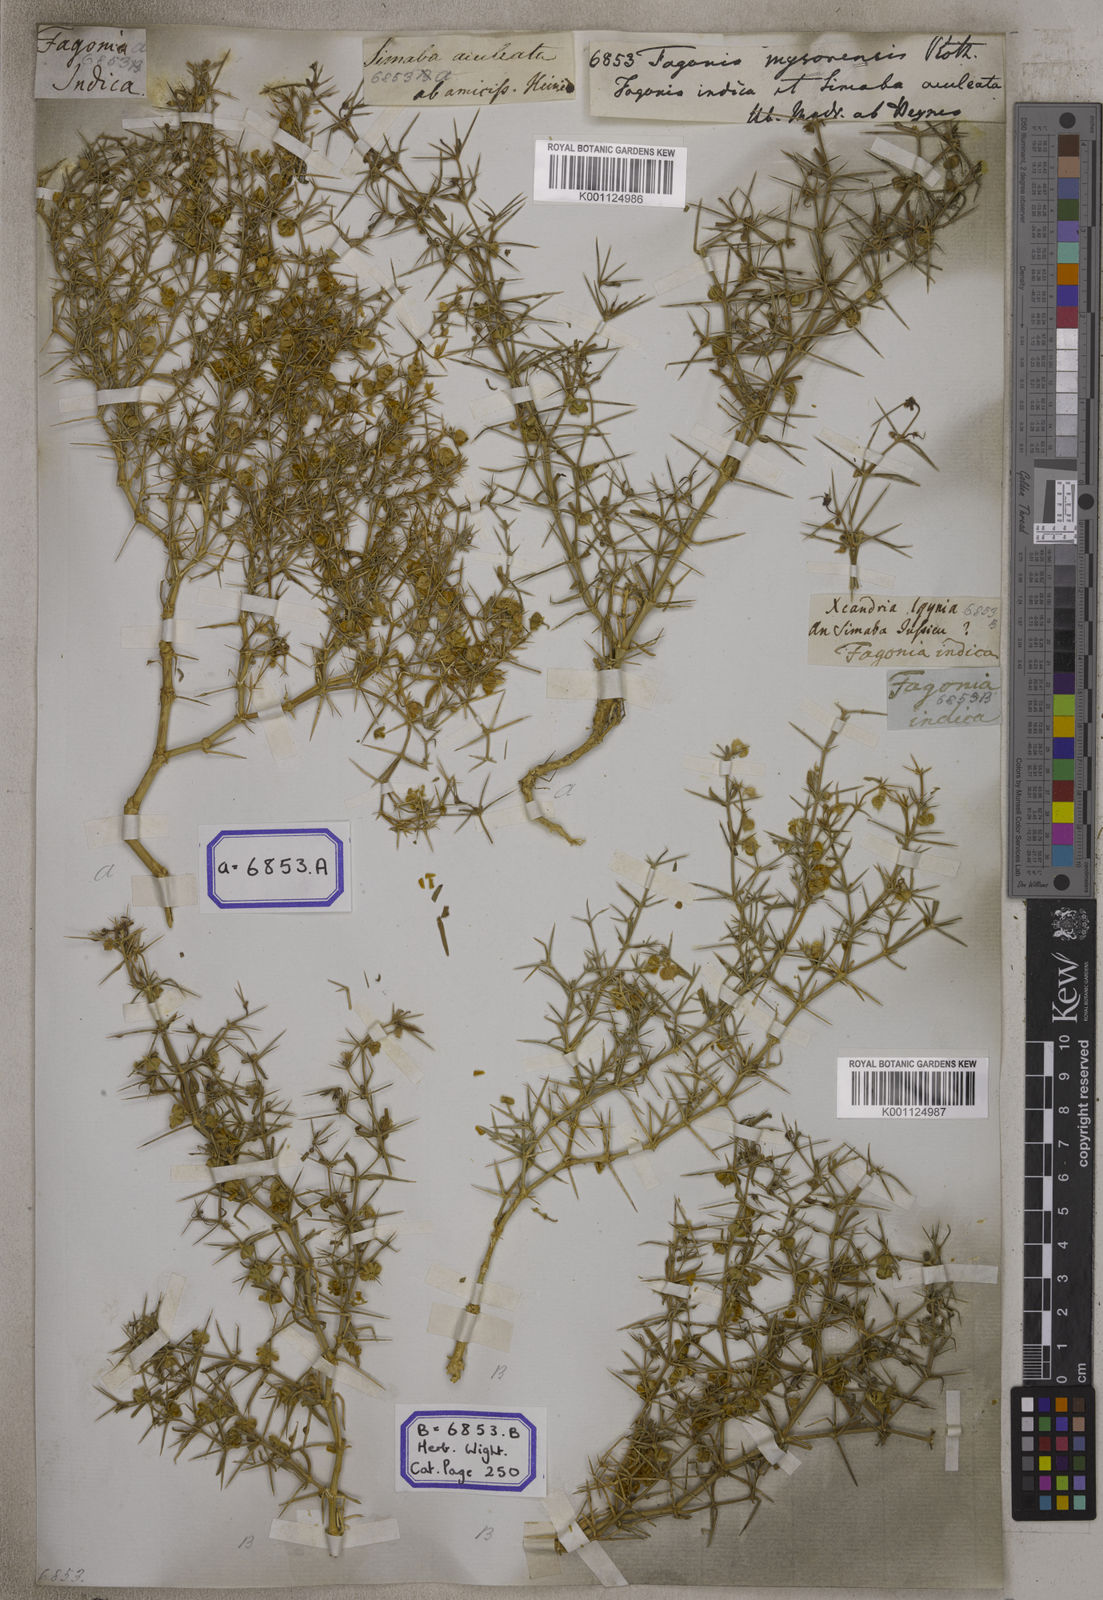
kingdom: Plantae
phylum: Tracheophyta
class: Magnoliopsida
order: Zygophyllales
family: Zygophyllaceae
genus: Fagonia
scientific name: Fagonia indica
